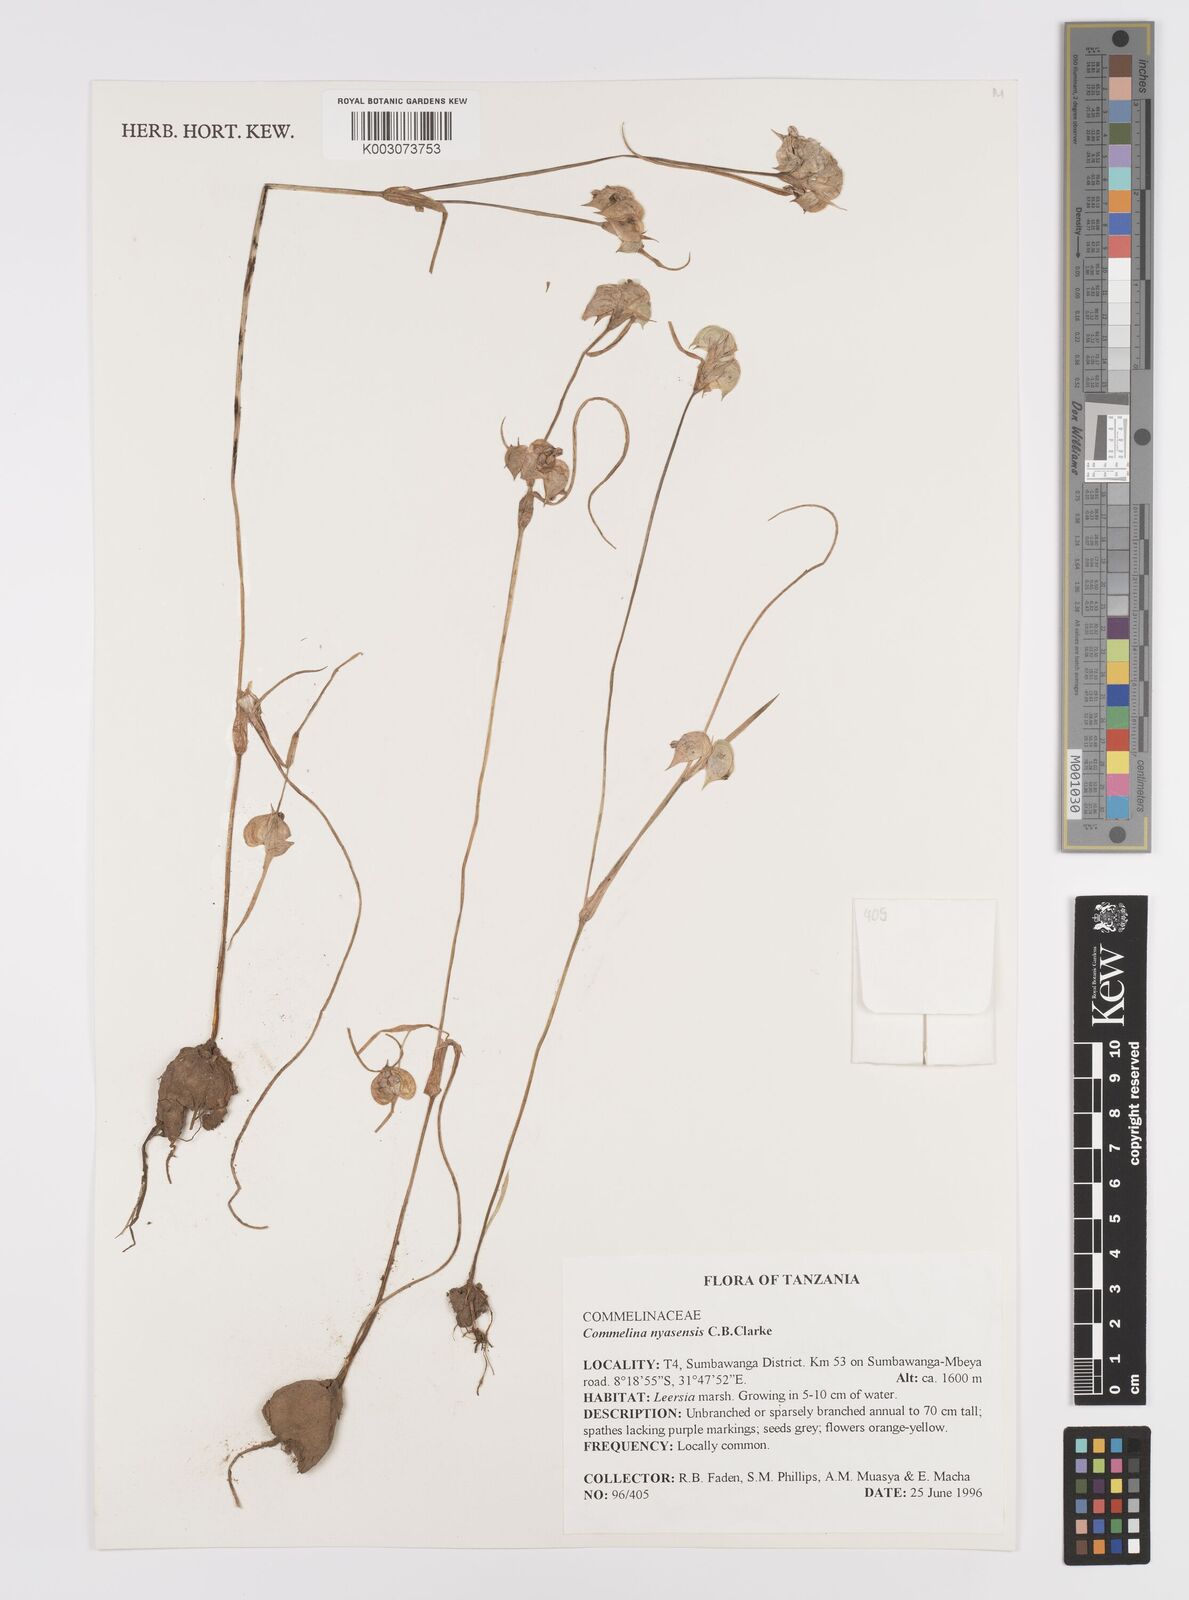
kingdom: Plantae
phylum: Tracheophyta
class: Liliopsida
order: Commelinales
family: Commelinaceae
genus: Commelina
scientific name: Commelina nyasensis
